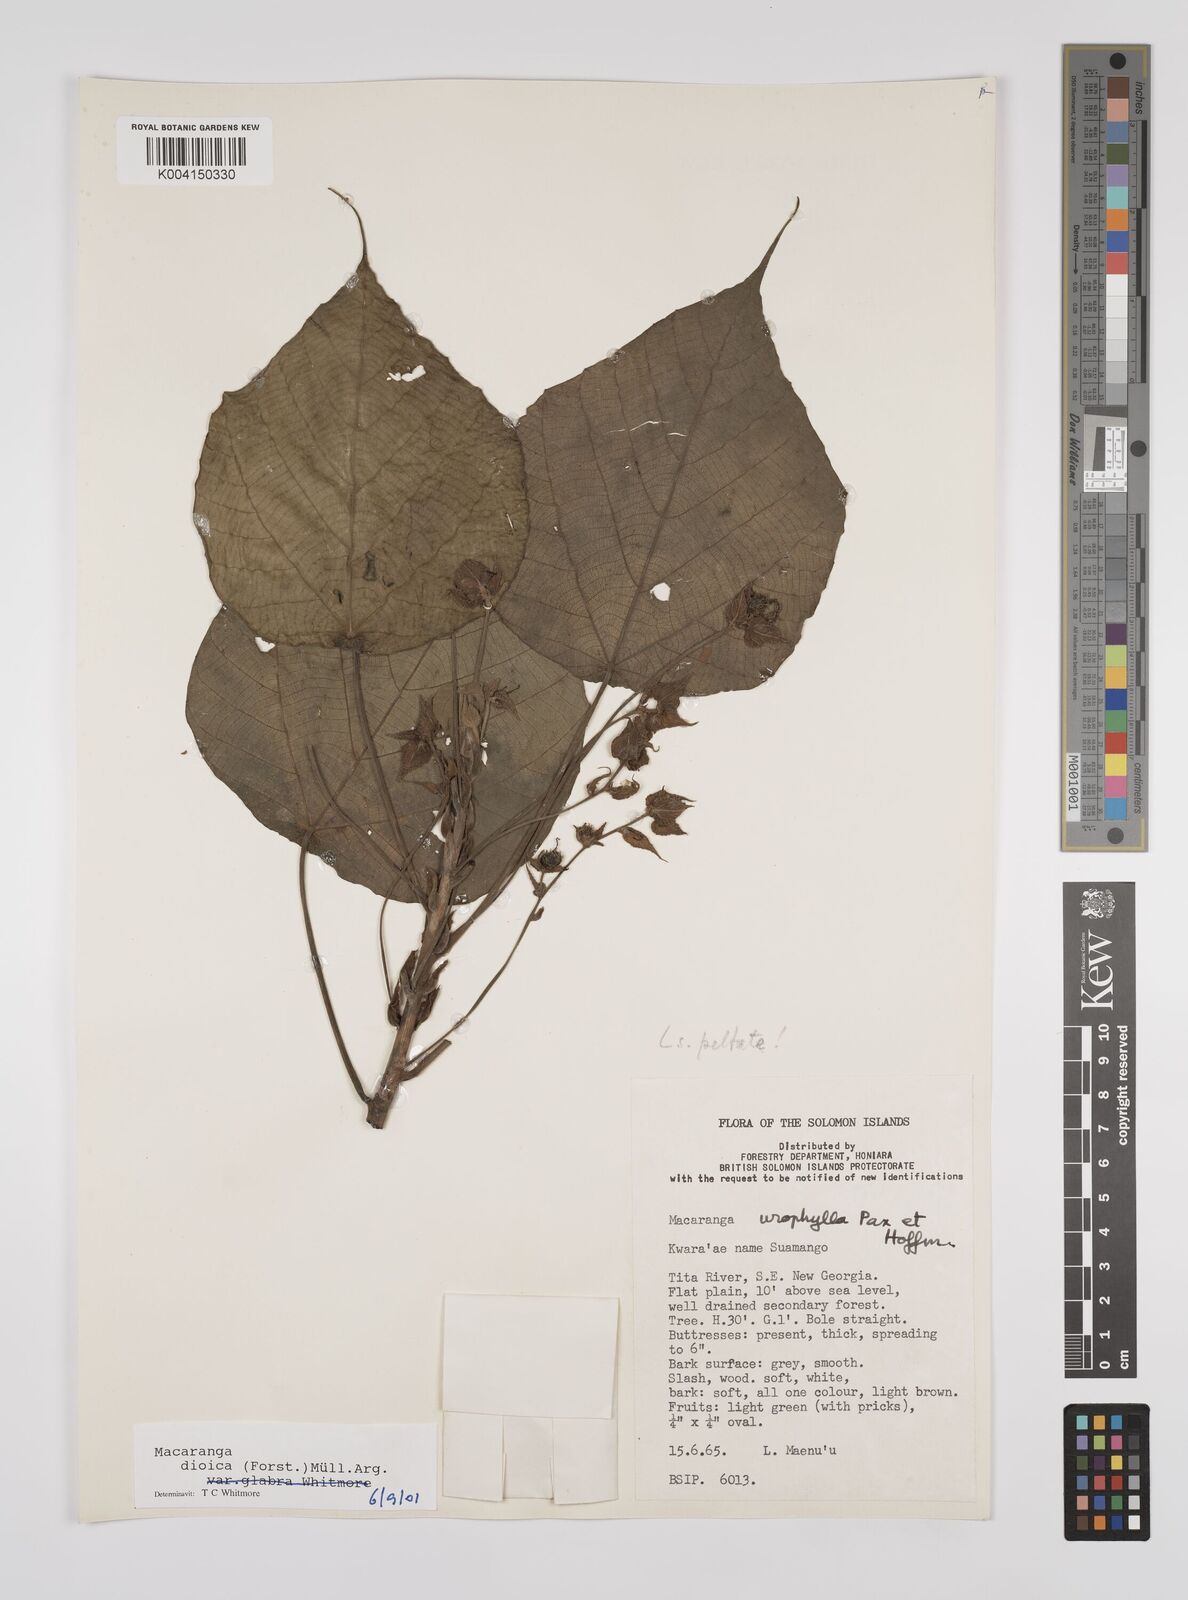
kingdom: Plantae
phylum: Tracheophyta
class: Magnoliopsida
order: Malpighiales
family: Euphorbiaceae
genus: Macaranga
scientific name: Macaranga dioica
